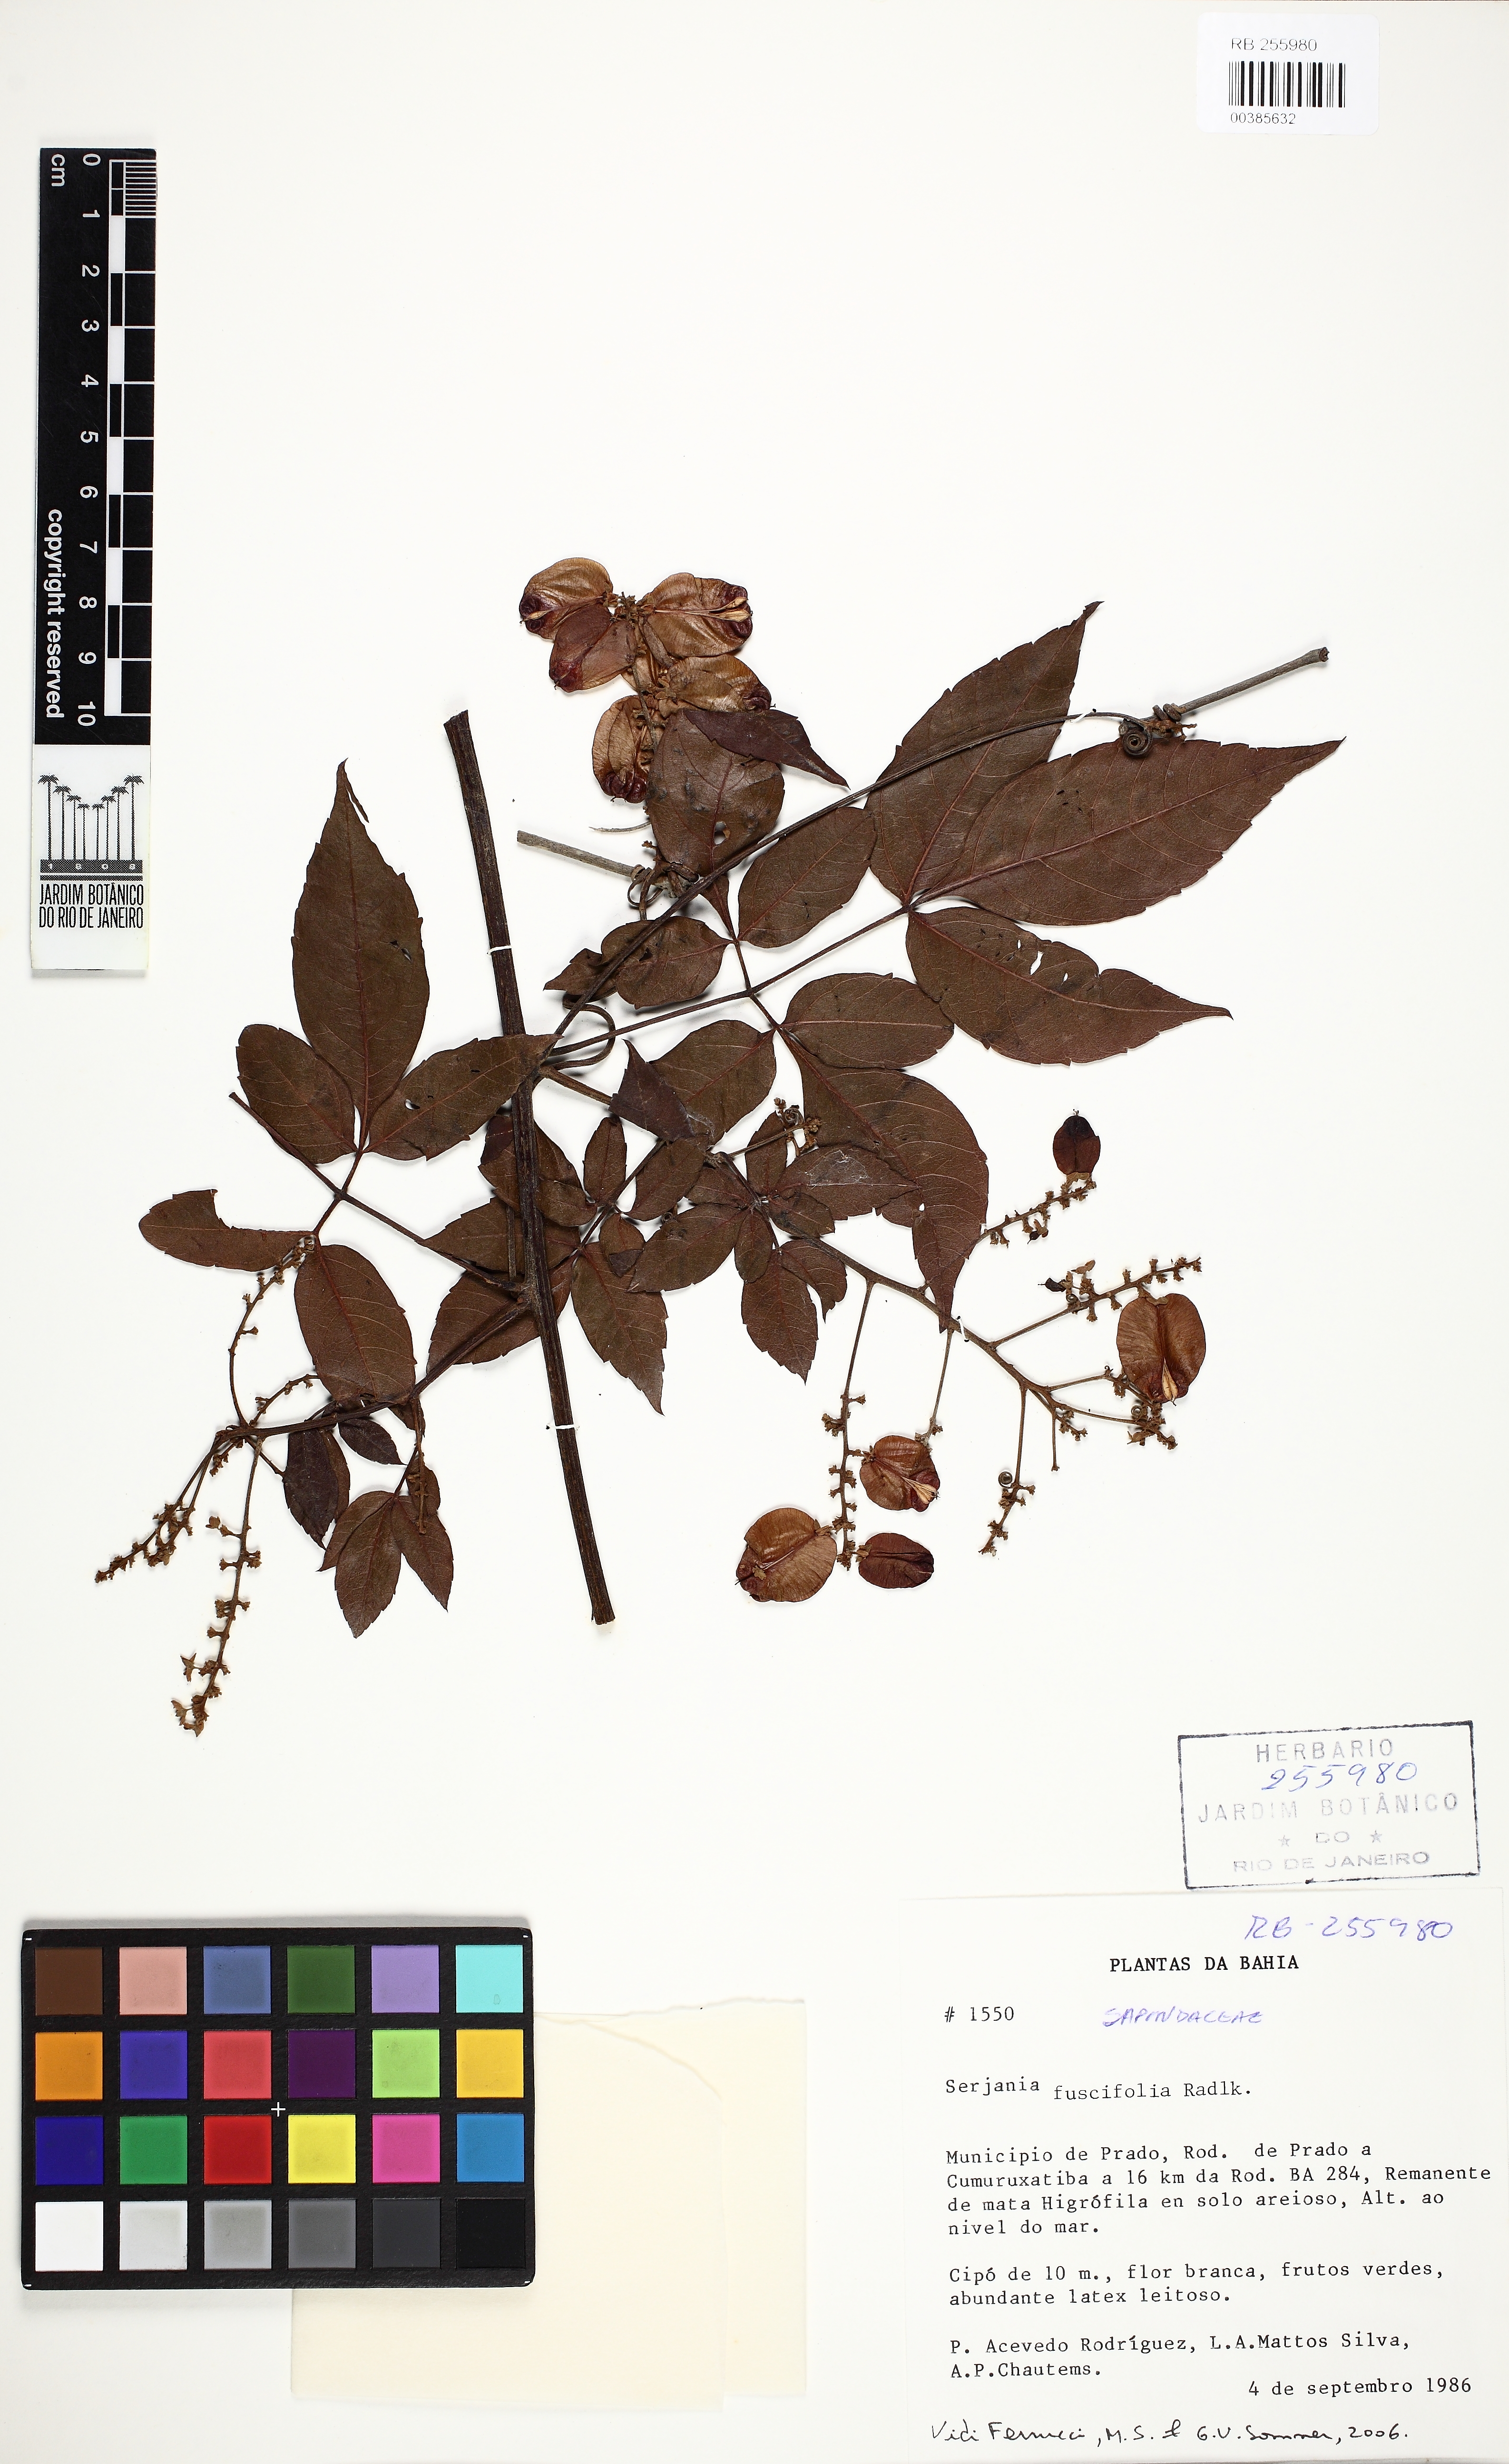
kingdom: Plantae
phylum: Tracheophyta
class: Magnoliopsida
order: Sapindales
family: Sapindaceae
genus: Serjania
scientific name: Serjania fuscifolia
